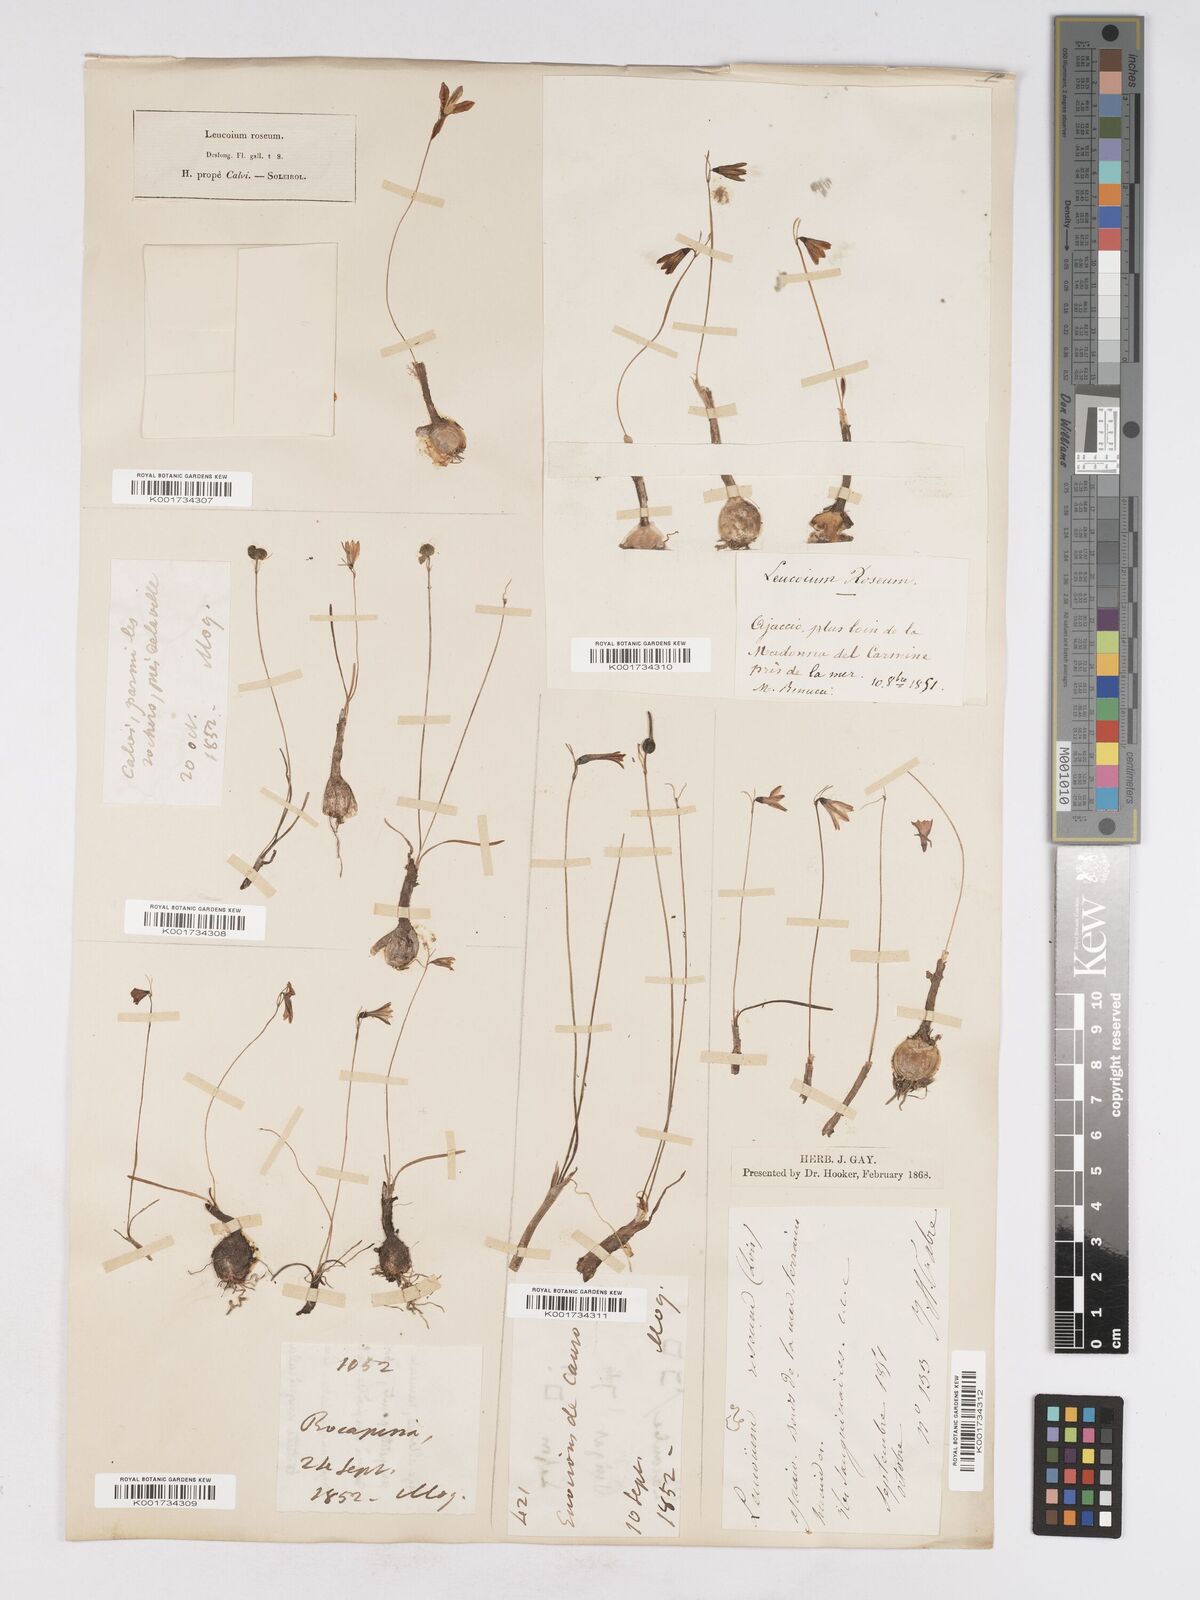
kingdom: Plantae
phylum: Tracheophyta
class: Liliopsida
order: Asparagales
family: Amaryllidaceae
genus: Acis
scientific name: Acis rosea
